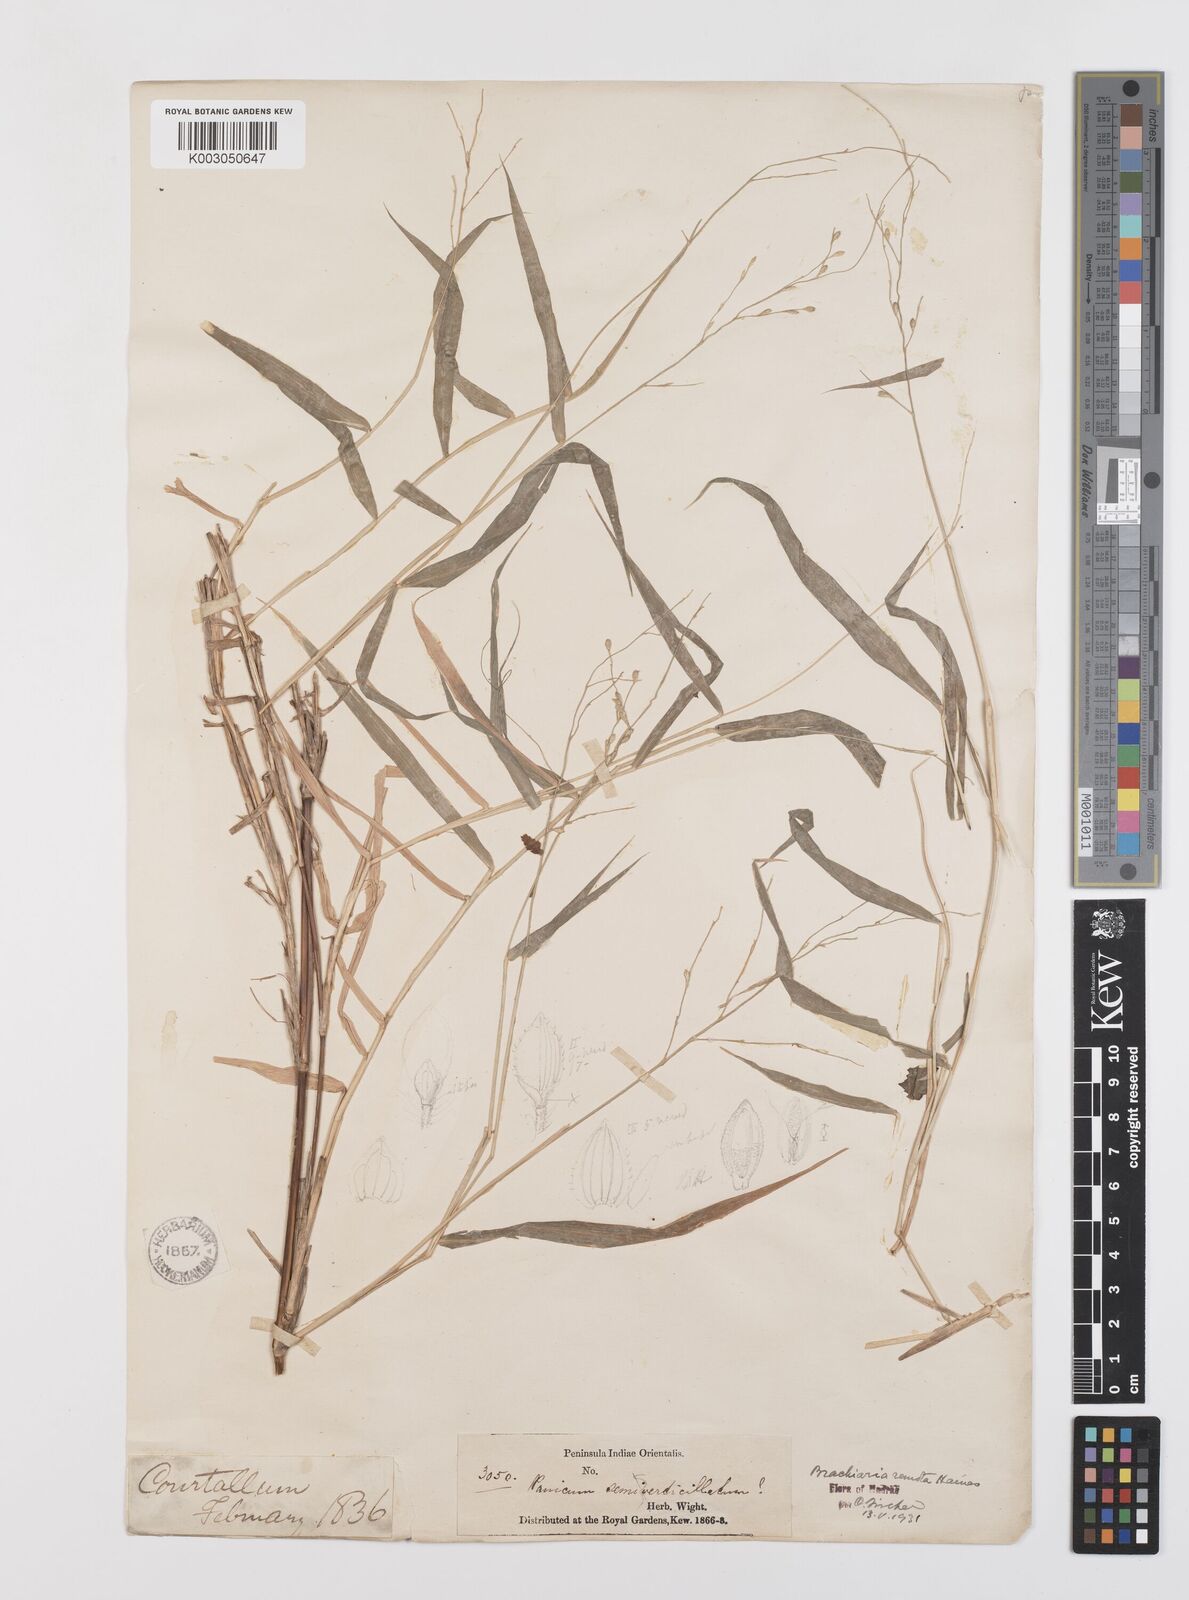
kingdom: Plantae
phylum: Tracheophyta
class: Liliopsida
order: Poales
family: Poaceae
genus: Urochloa
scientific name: Urochloa Brachiaria remota
